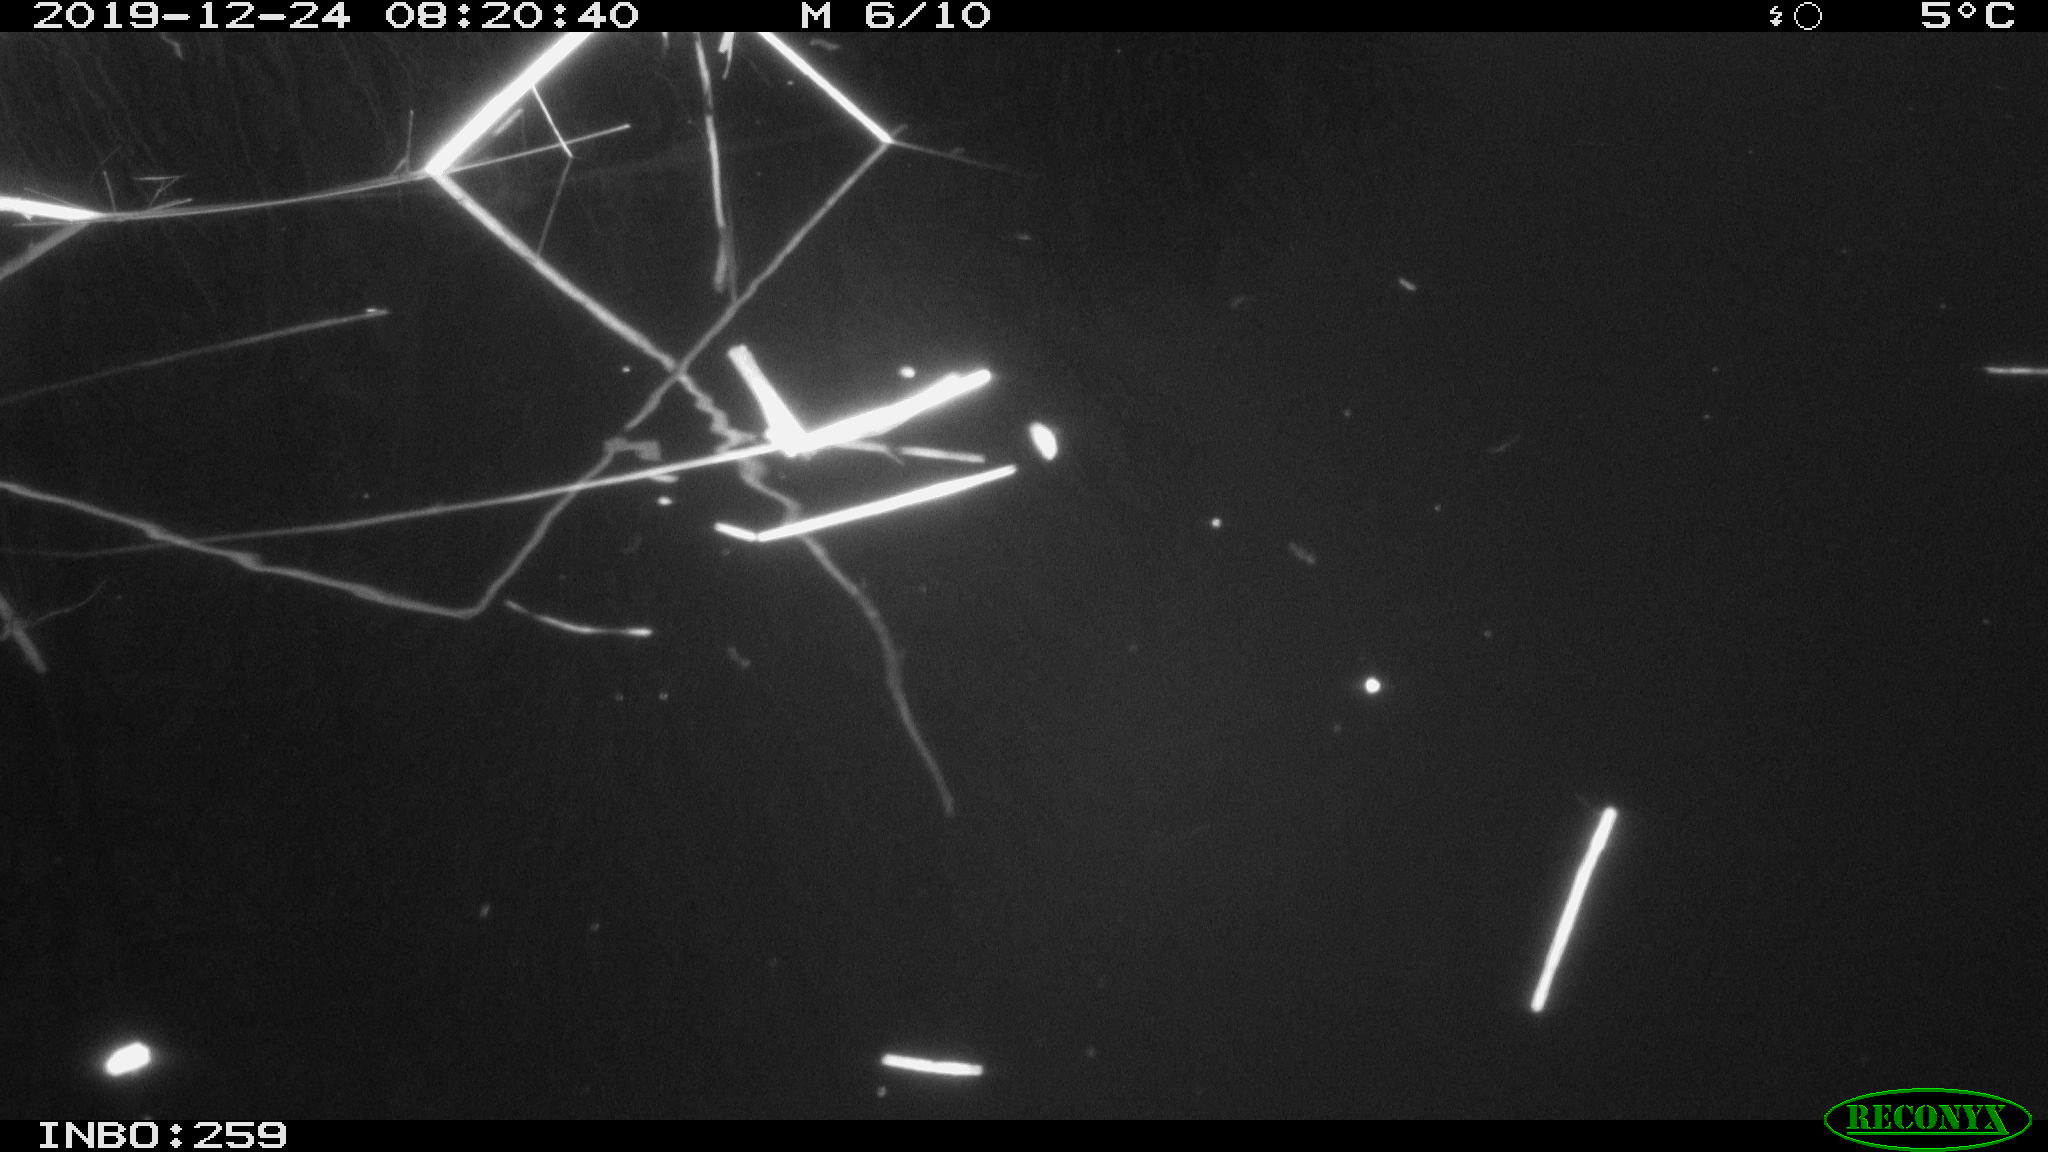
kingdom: Animalia
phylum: Chordata
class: Aves
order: Gruiformes
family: Rallidae
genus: Gallinula
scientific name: Gallinula chloropus
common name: Common moorhen
